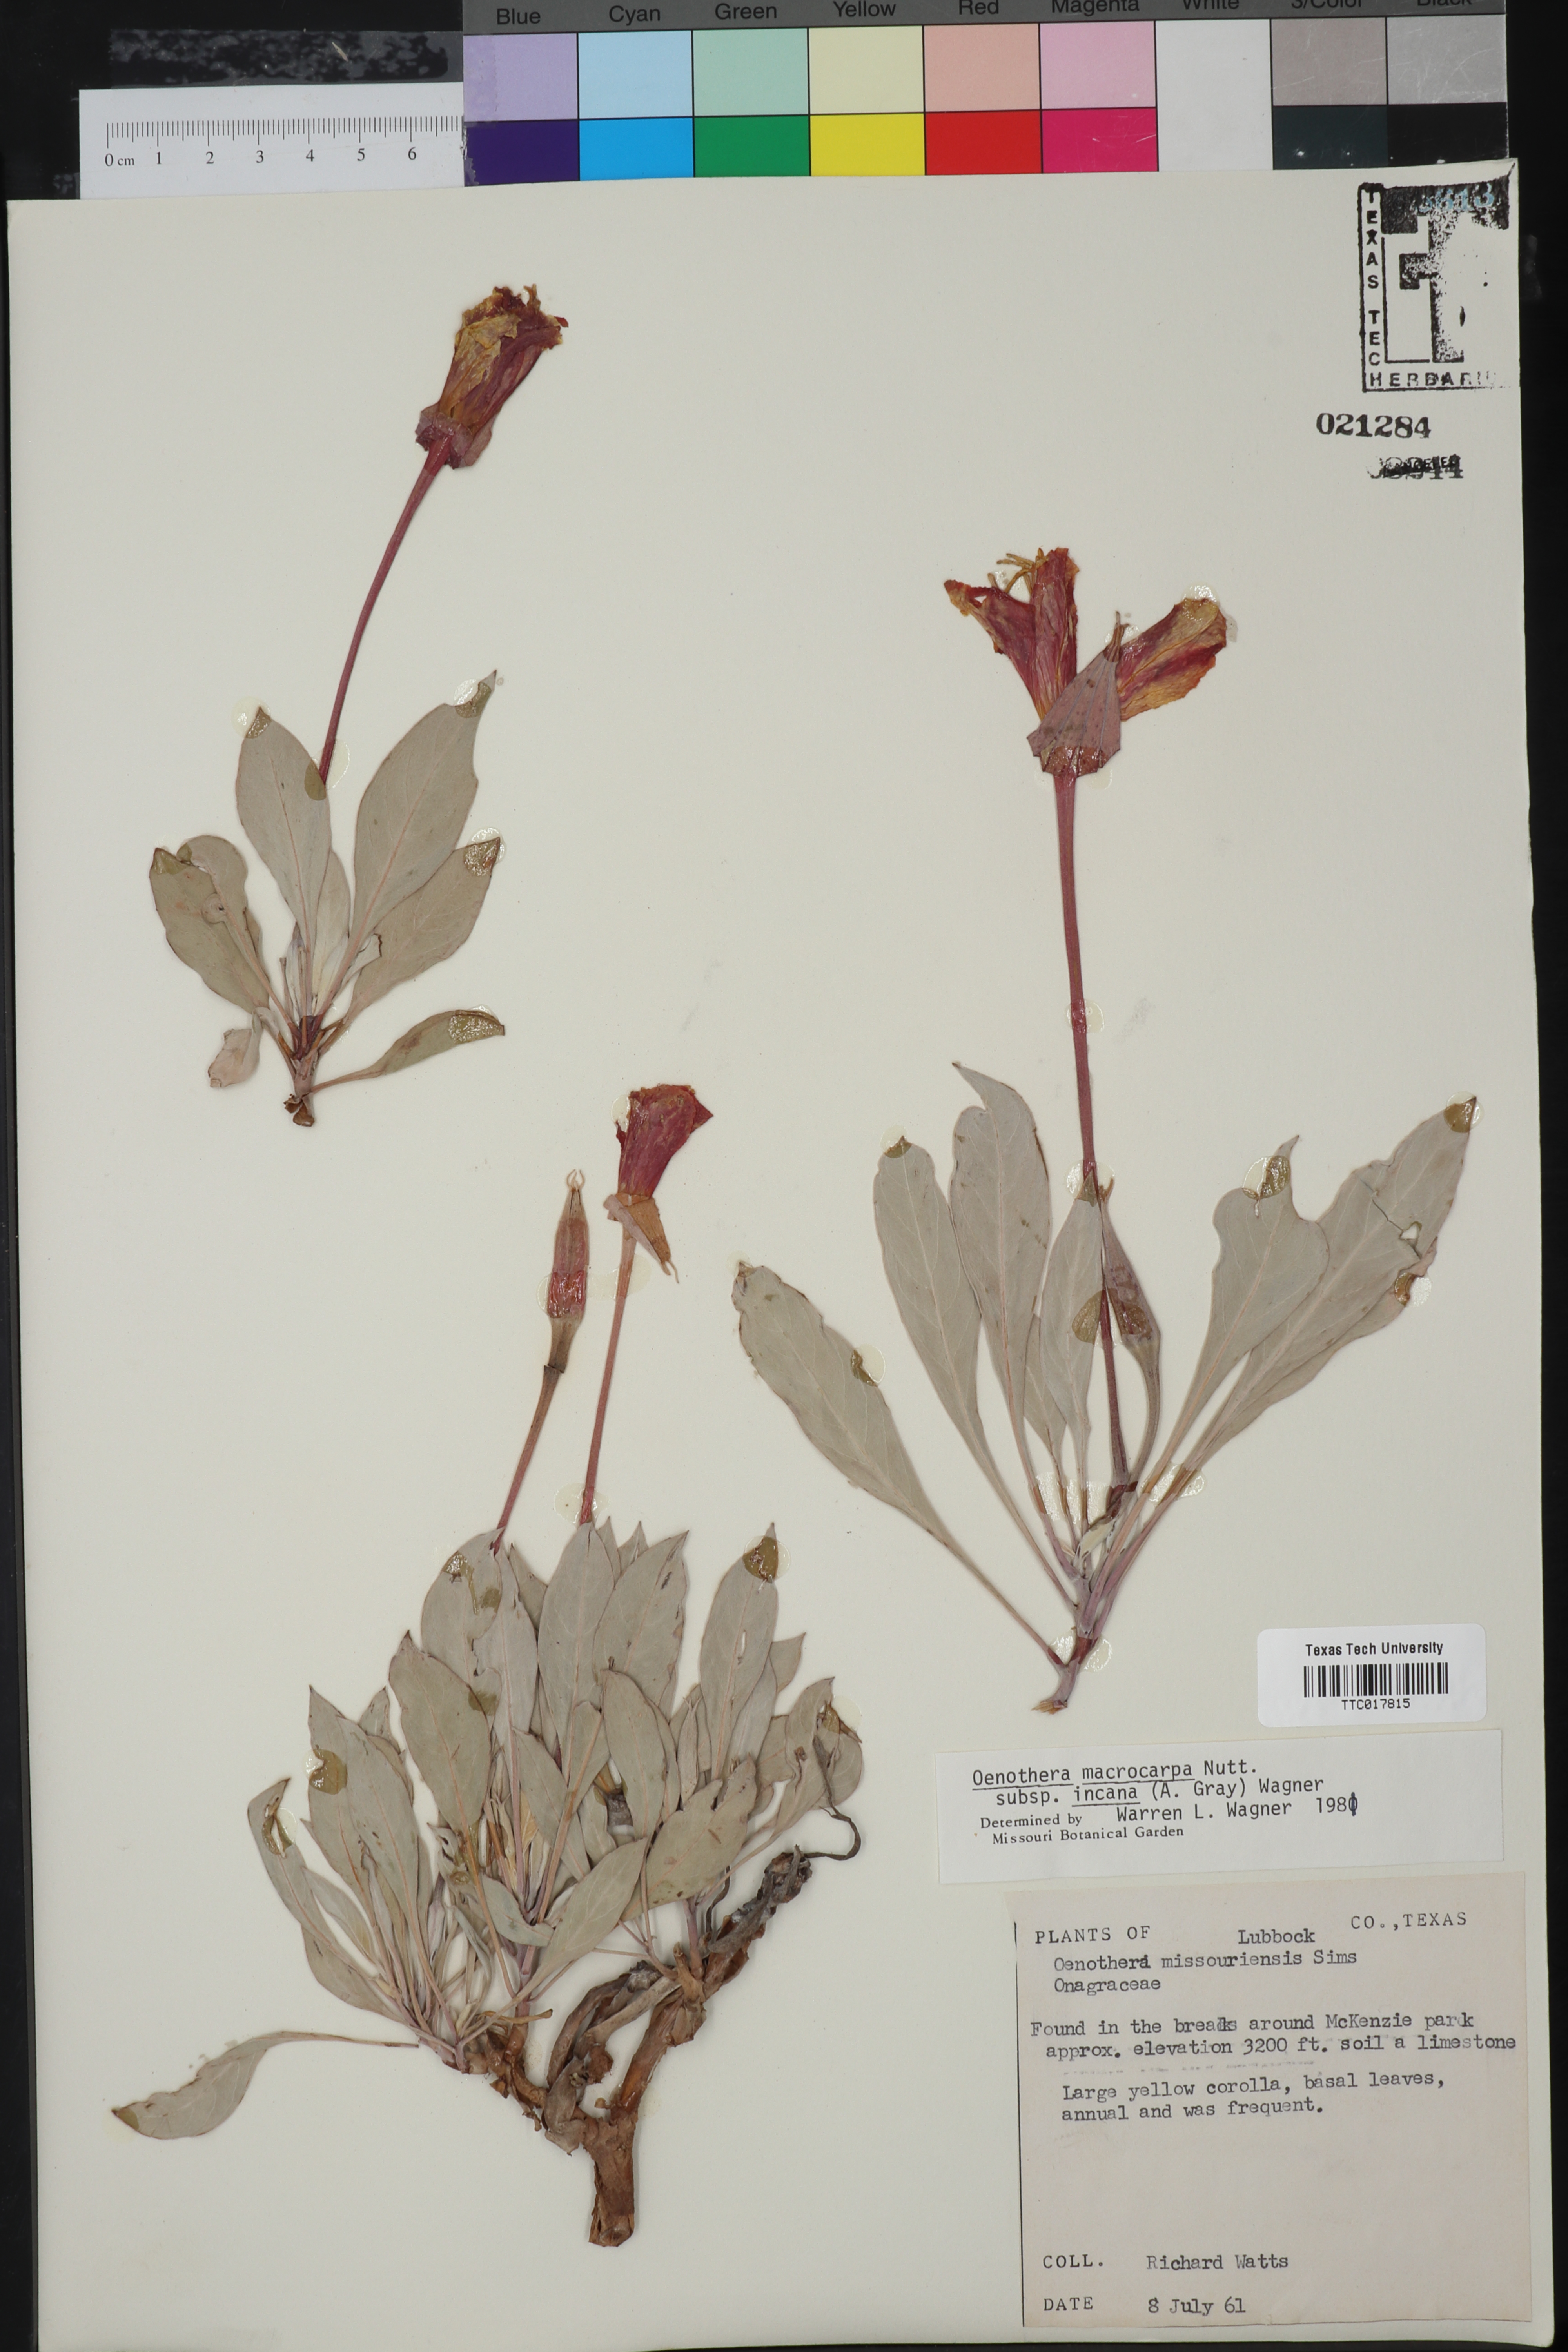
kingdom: Plantae
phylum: Tracheophyta
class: Magnoliopsida
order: Myrtales
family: Onagraceae
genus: Oenothera
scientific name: Oenothera macrocarpa
